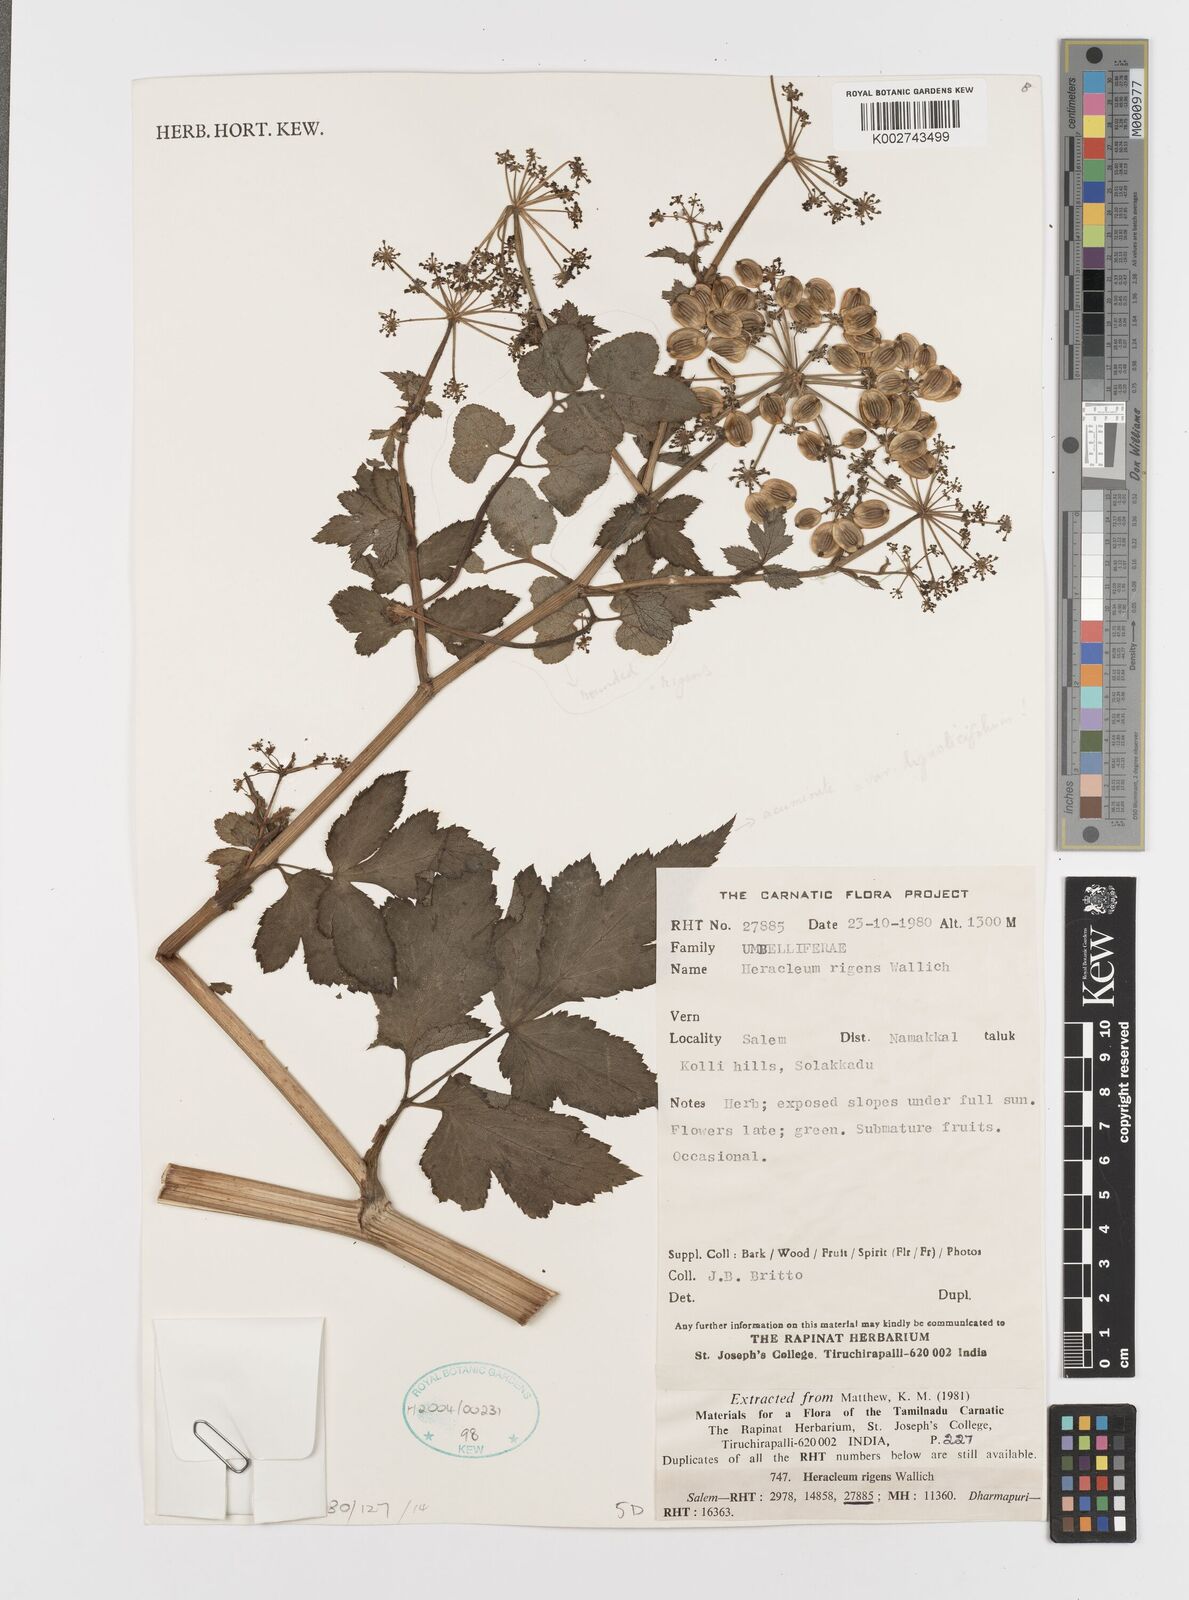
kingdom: Plantae
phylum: Tracheophyta
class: Magnoliopsida
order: Apiales
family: Apiaceae
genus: Tetrataenium
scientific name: Tetrataenium rigens
